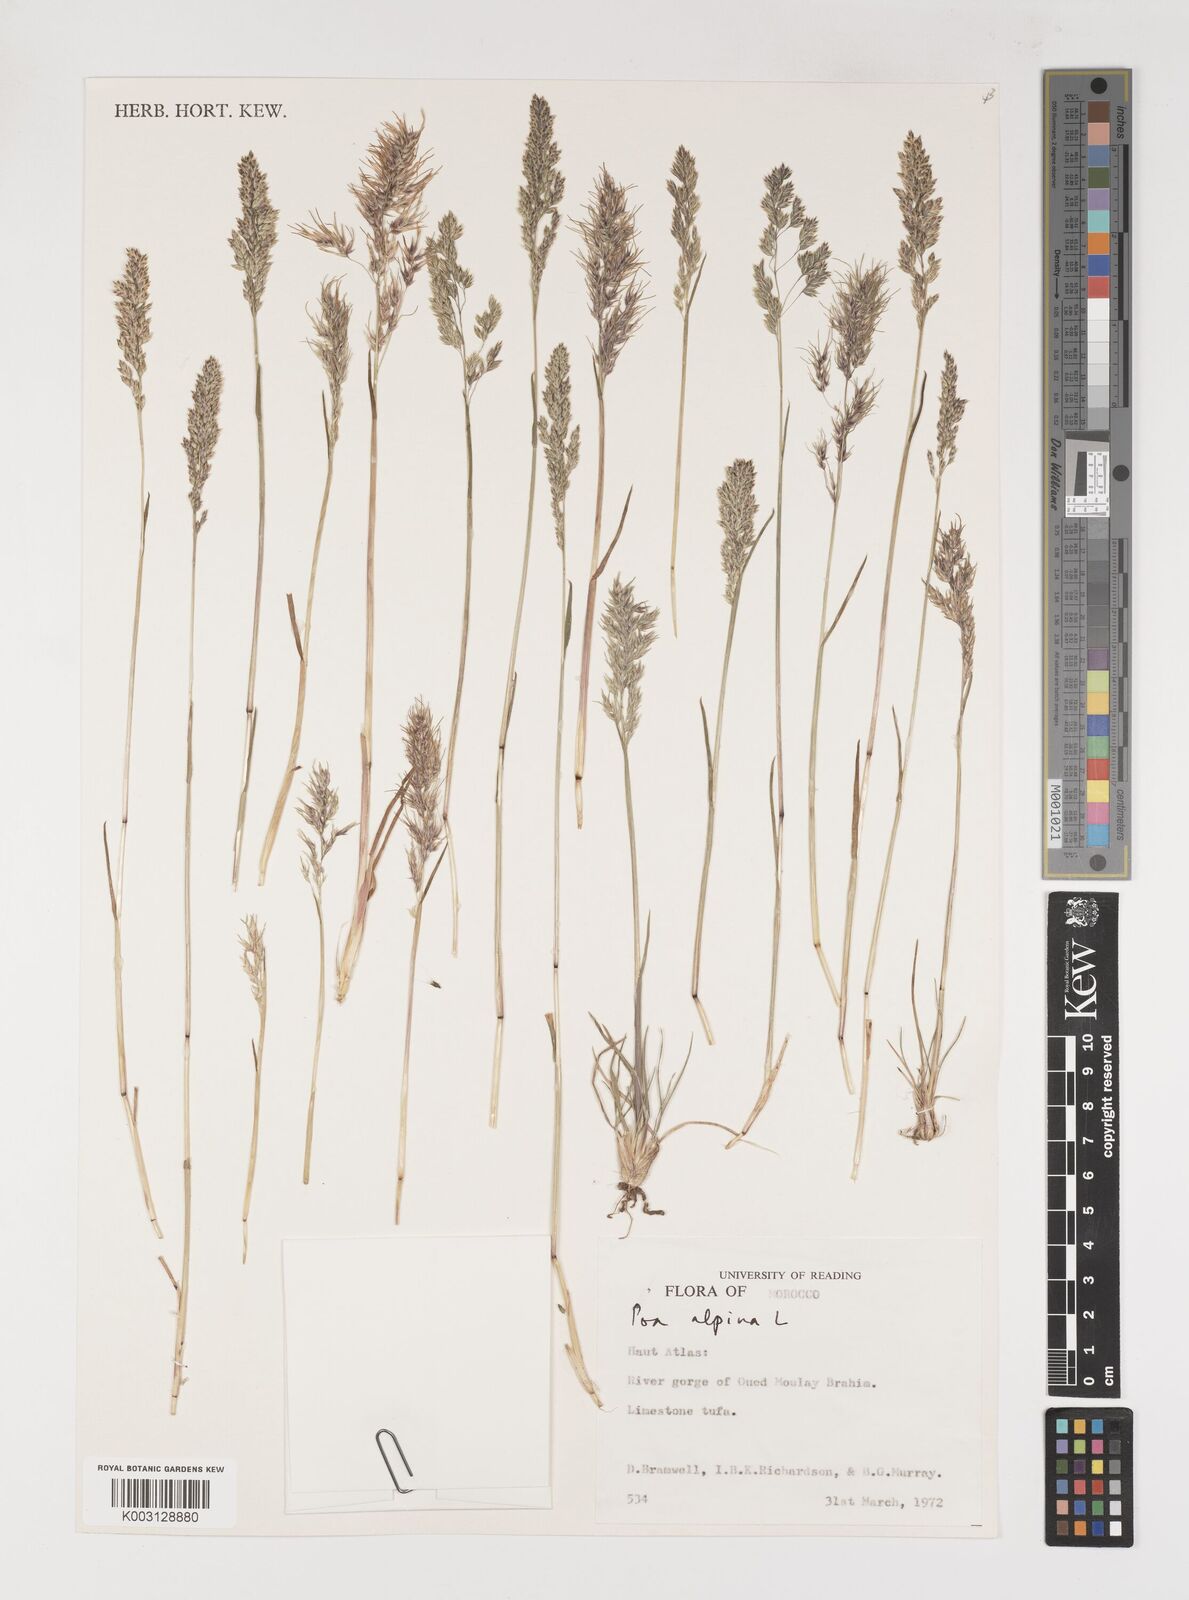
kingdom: Plantae
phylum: Tracheophyta
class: Liliopsida
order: Poales
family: Poaceae
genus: Poa
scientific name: Poa alpina
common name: Alpine bluegrass
